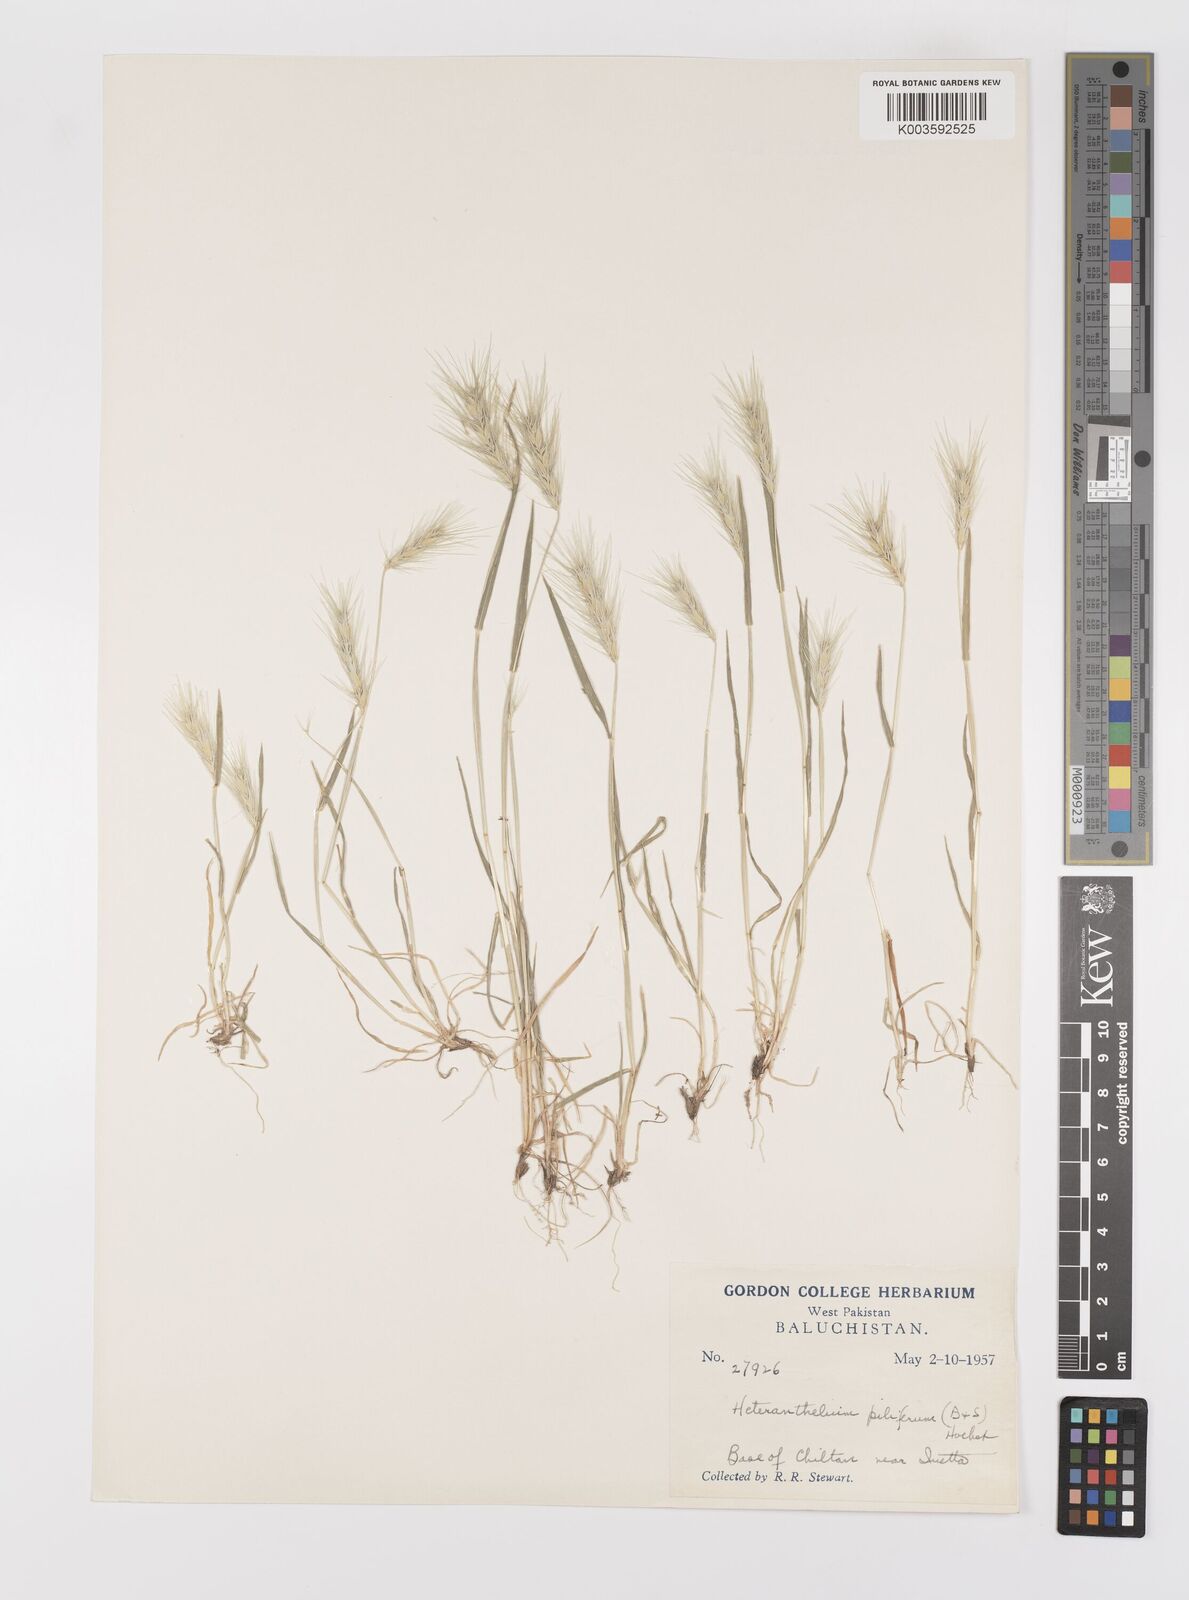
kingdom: Plantae
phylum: Tracheophyta
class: Liliopsida
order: Poales
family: Poaceae
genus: Heteranthelium
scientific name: Heteranthelium piliferum
